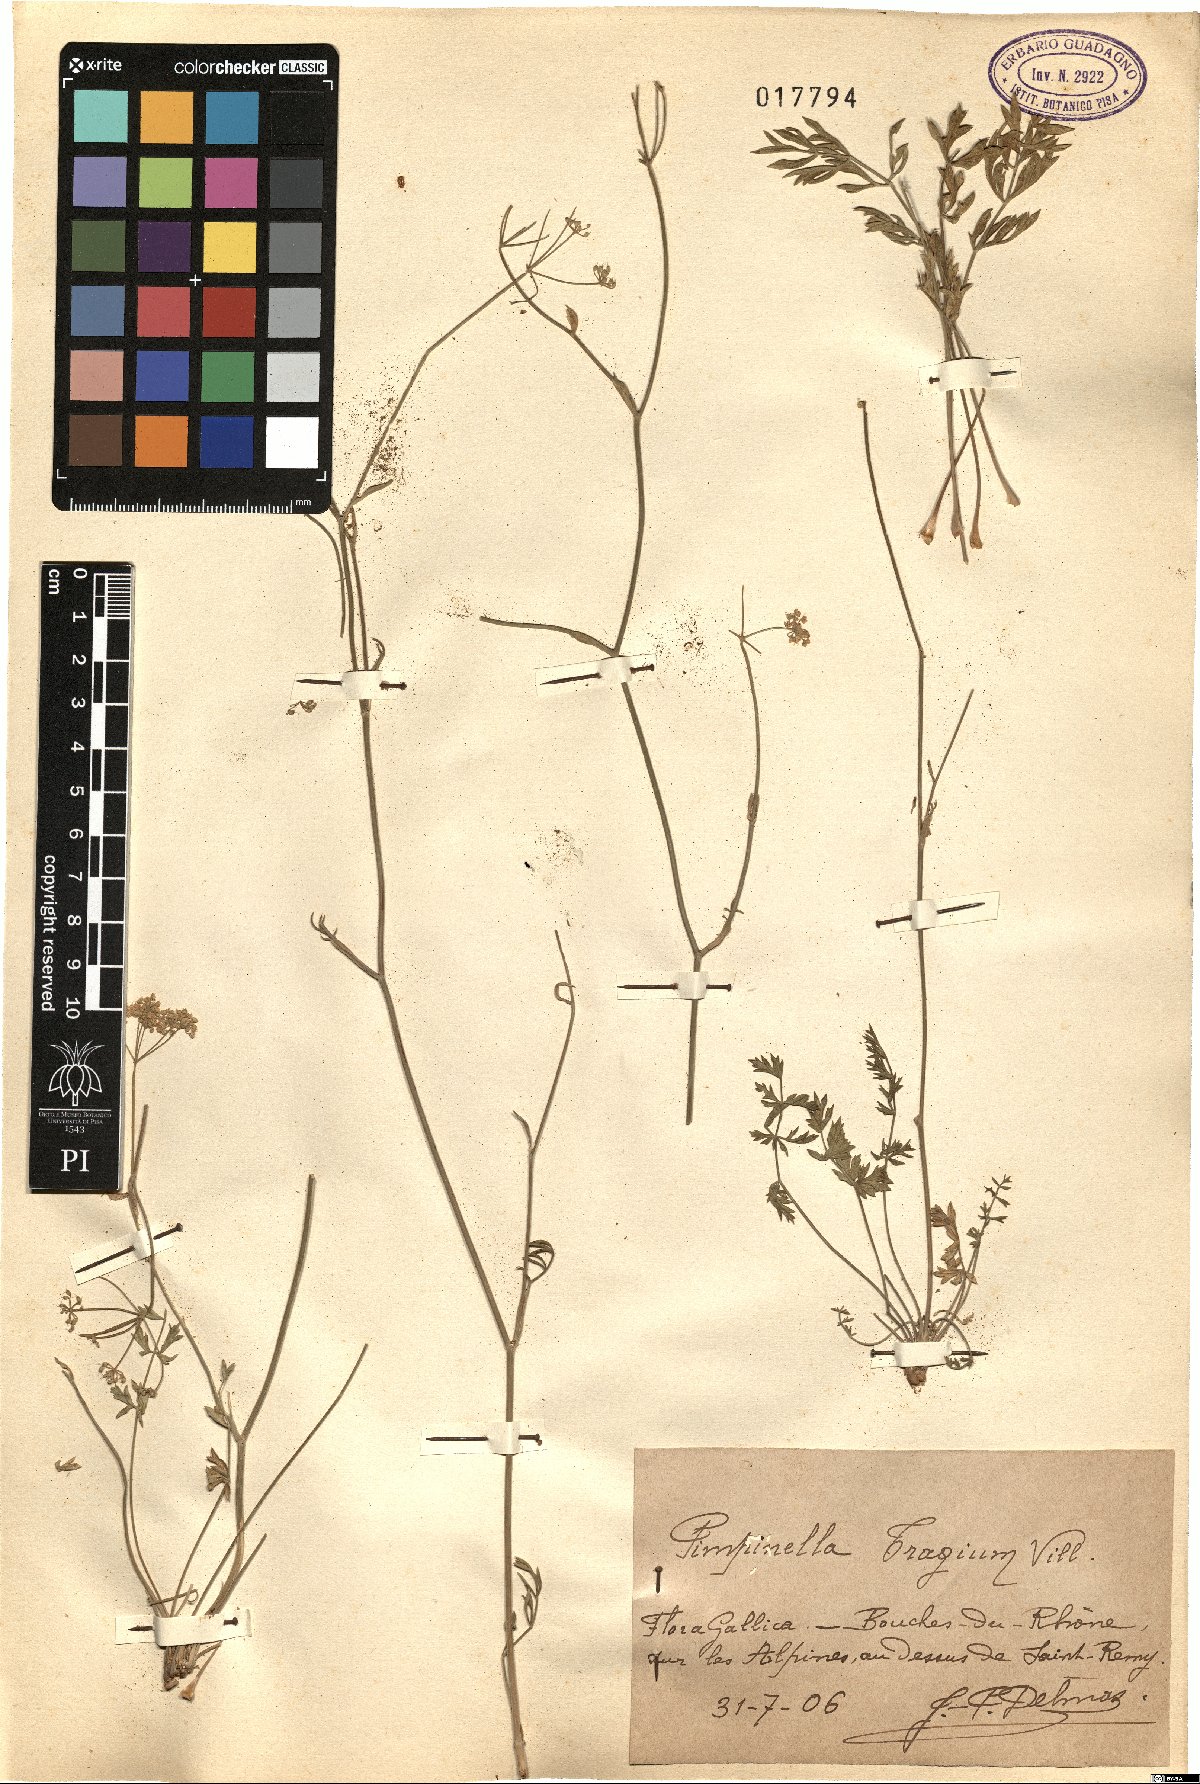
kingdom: Plantae
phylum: Tracheophyta
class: Magnoliopsida
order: Apiales
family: Apiaceae
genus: Pimpinella
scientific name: Pimpinella tragium
